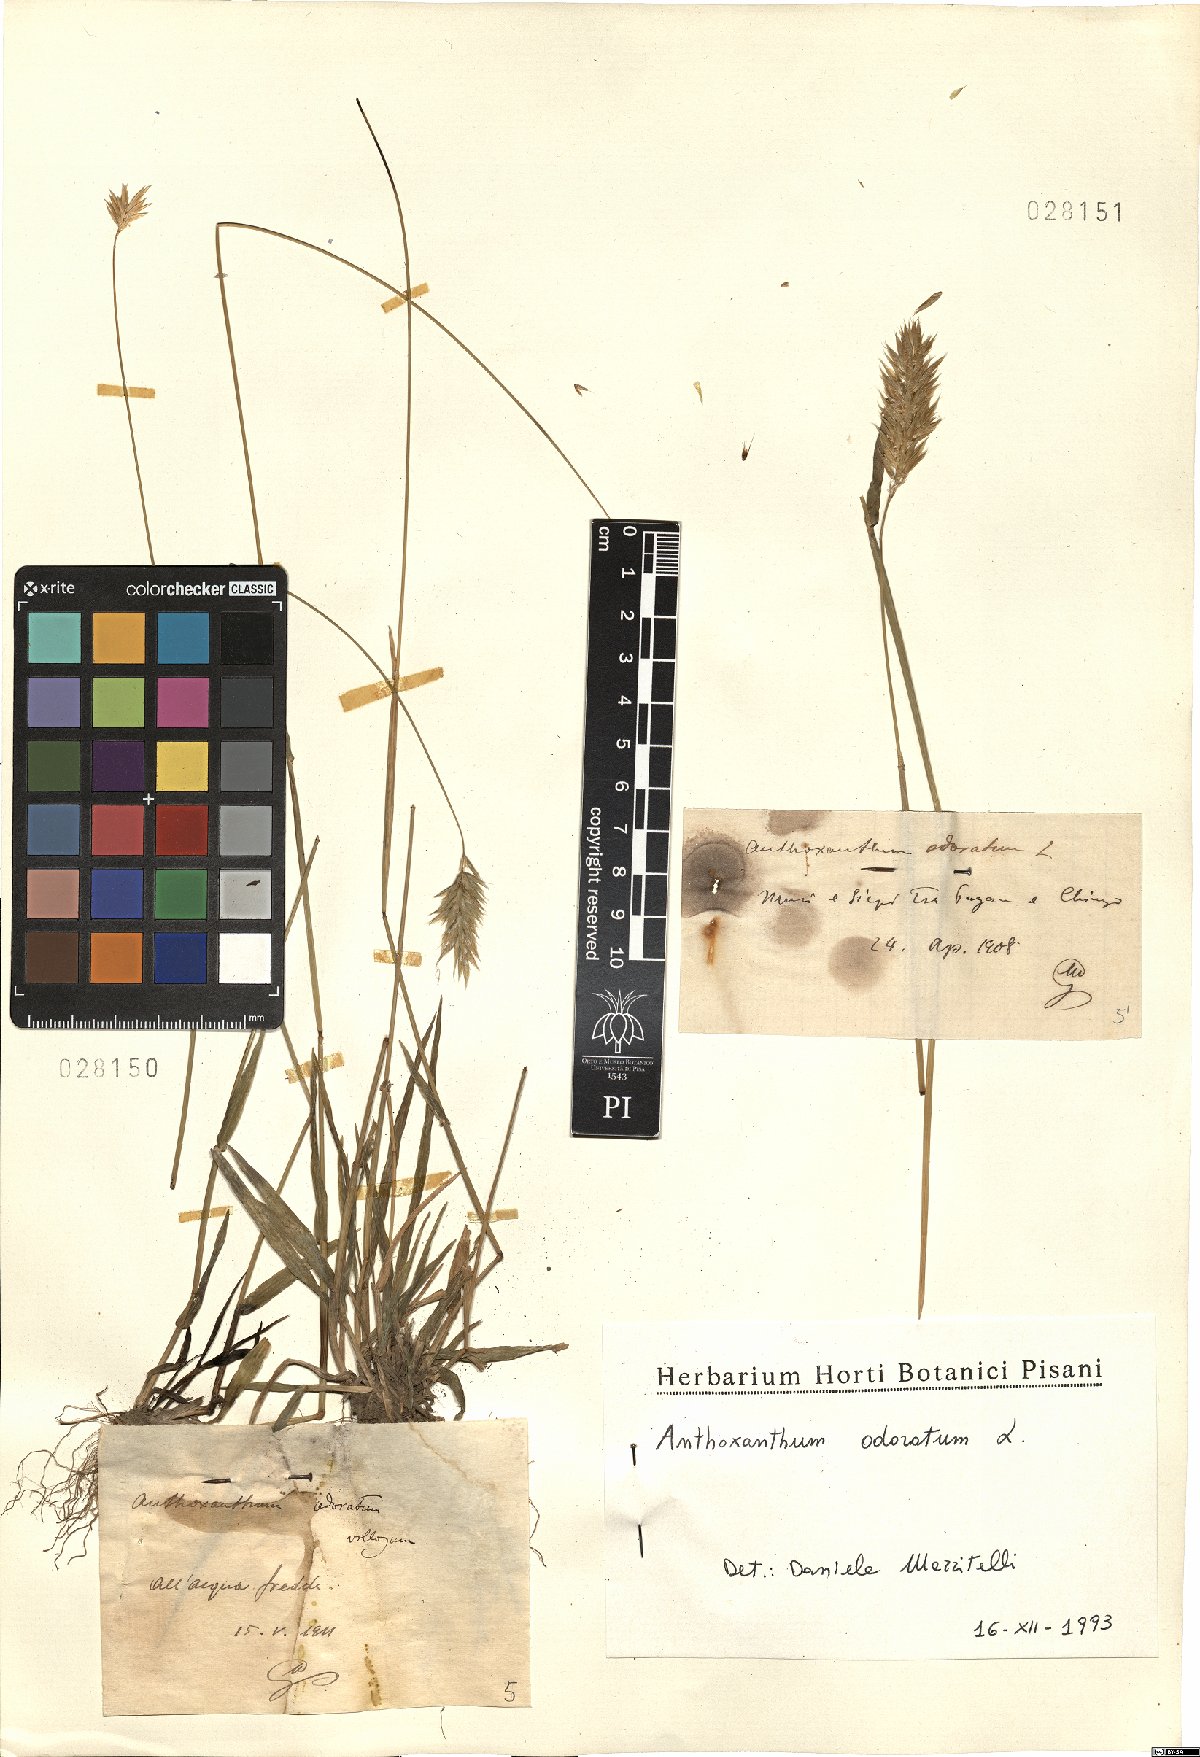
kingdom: Plantae
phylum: Tracheophyta
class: Liliopsida
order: Poales
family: Poaceae
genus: Anthoxanthum
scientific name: Anthoxanthum odoratum
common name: Sweet vernalgrass
